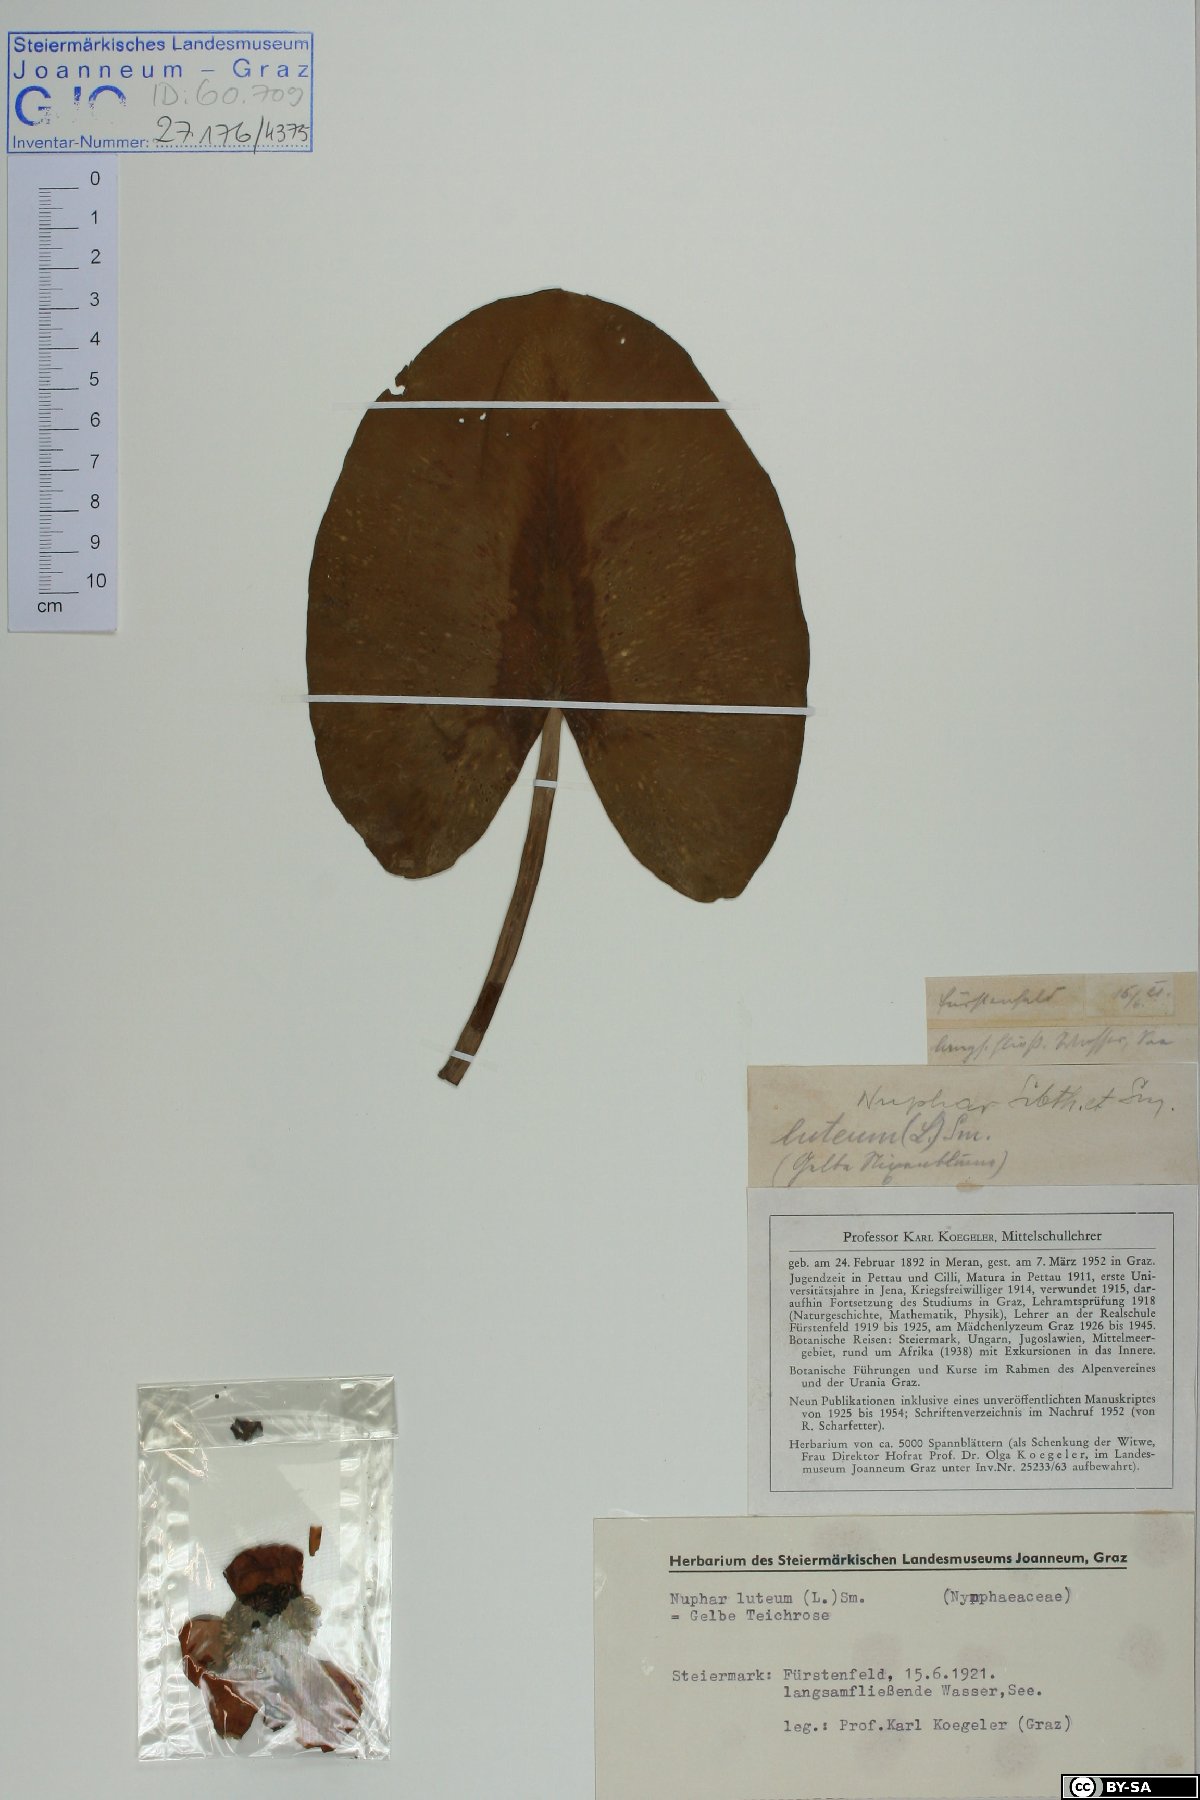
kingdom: Plantae
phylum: Tracheophyta
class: Magnoliopsida
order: Nymphaeales
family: Nymphaeaceae
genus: Nuphar
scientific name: Nuphar lutea
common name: Yellow water-lily
